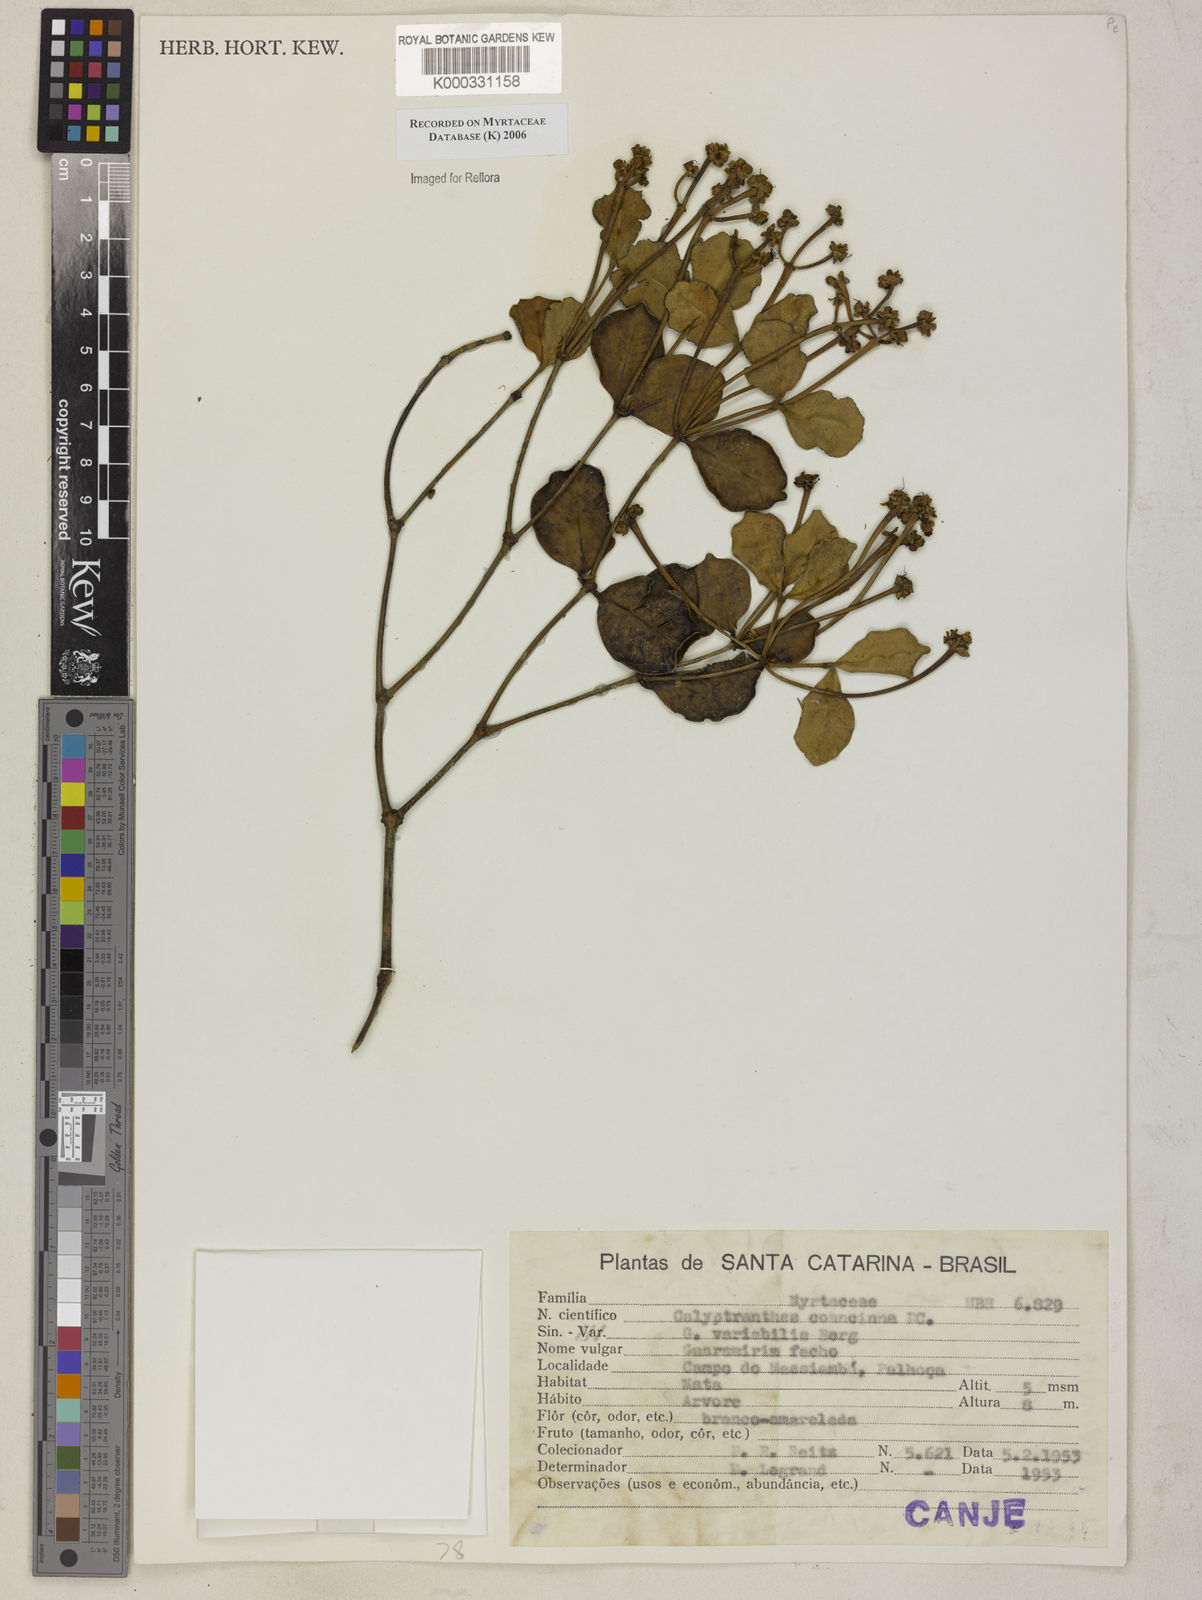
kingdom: Plantae
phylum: Tracheophyta
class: Magnoliopsida
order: Myrtales
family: Myrtaceae
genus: Myrcia
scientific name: Myrcia cruciflora
